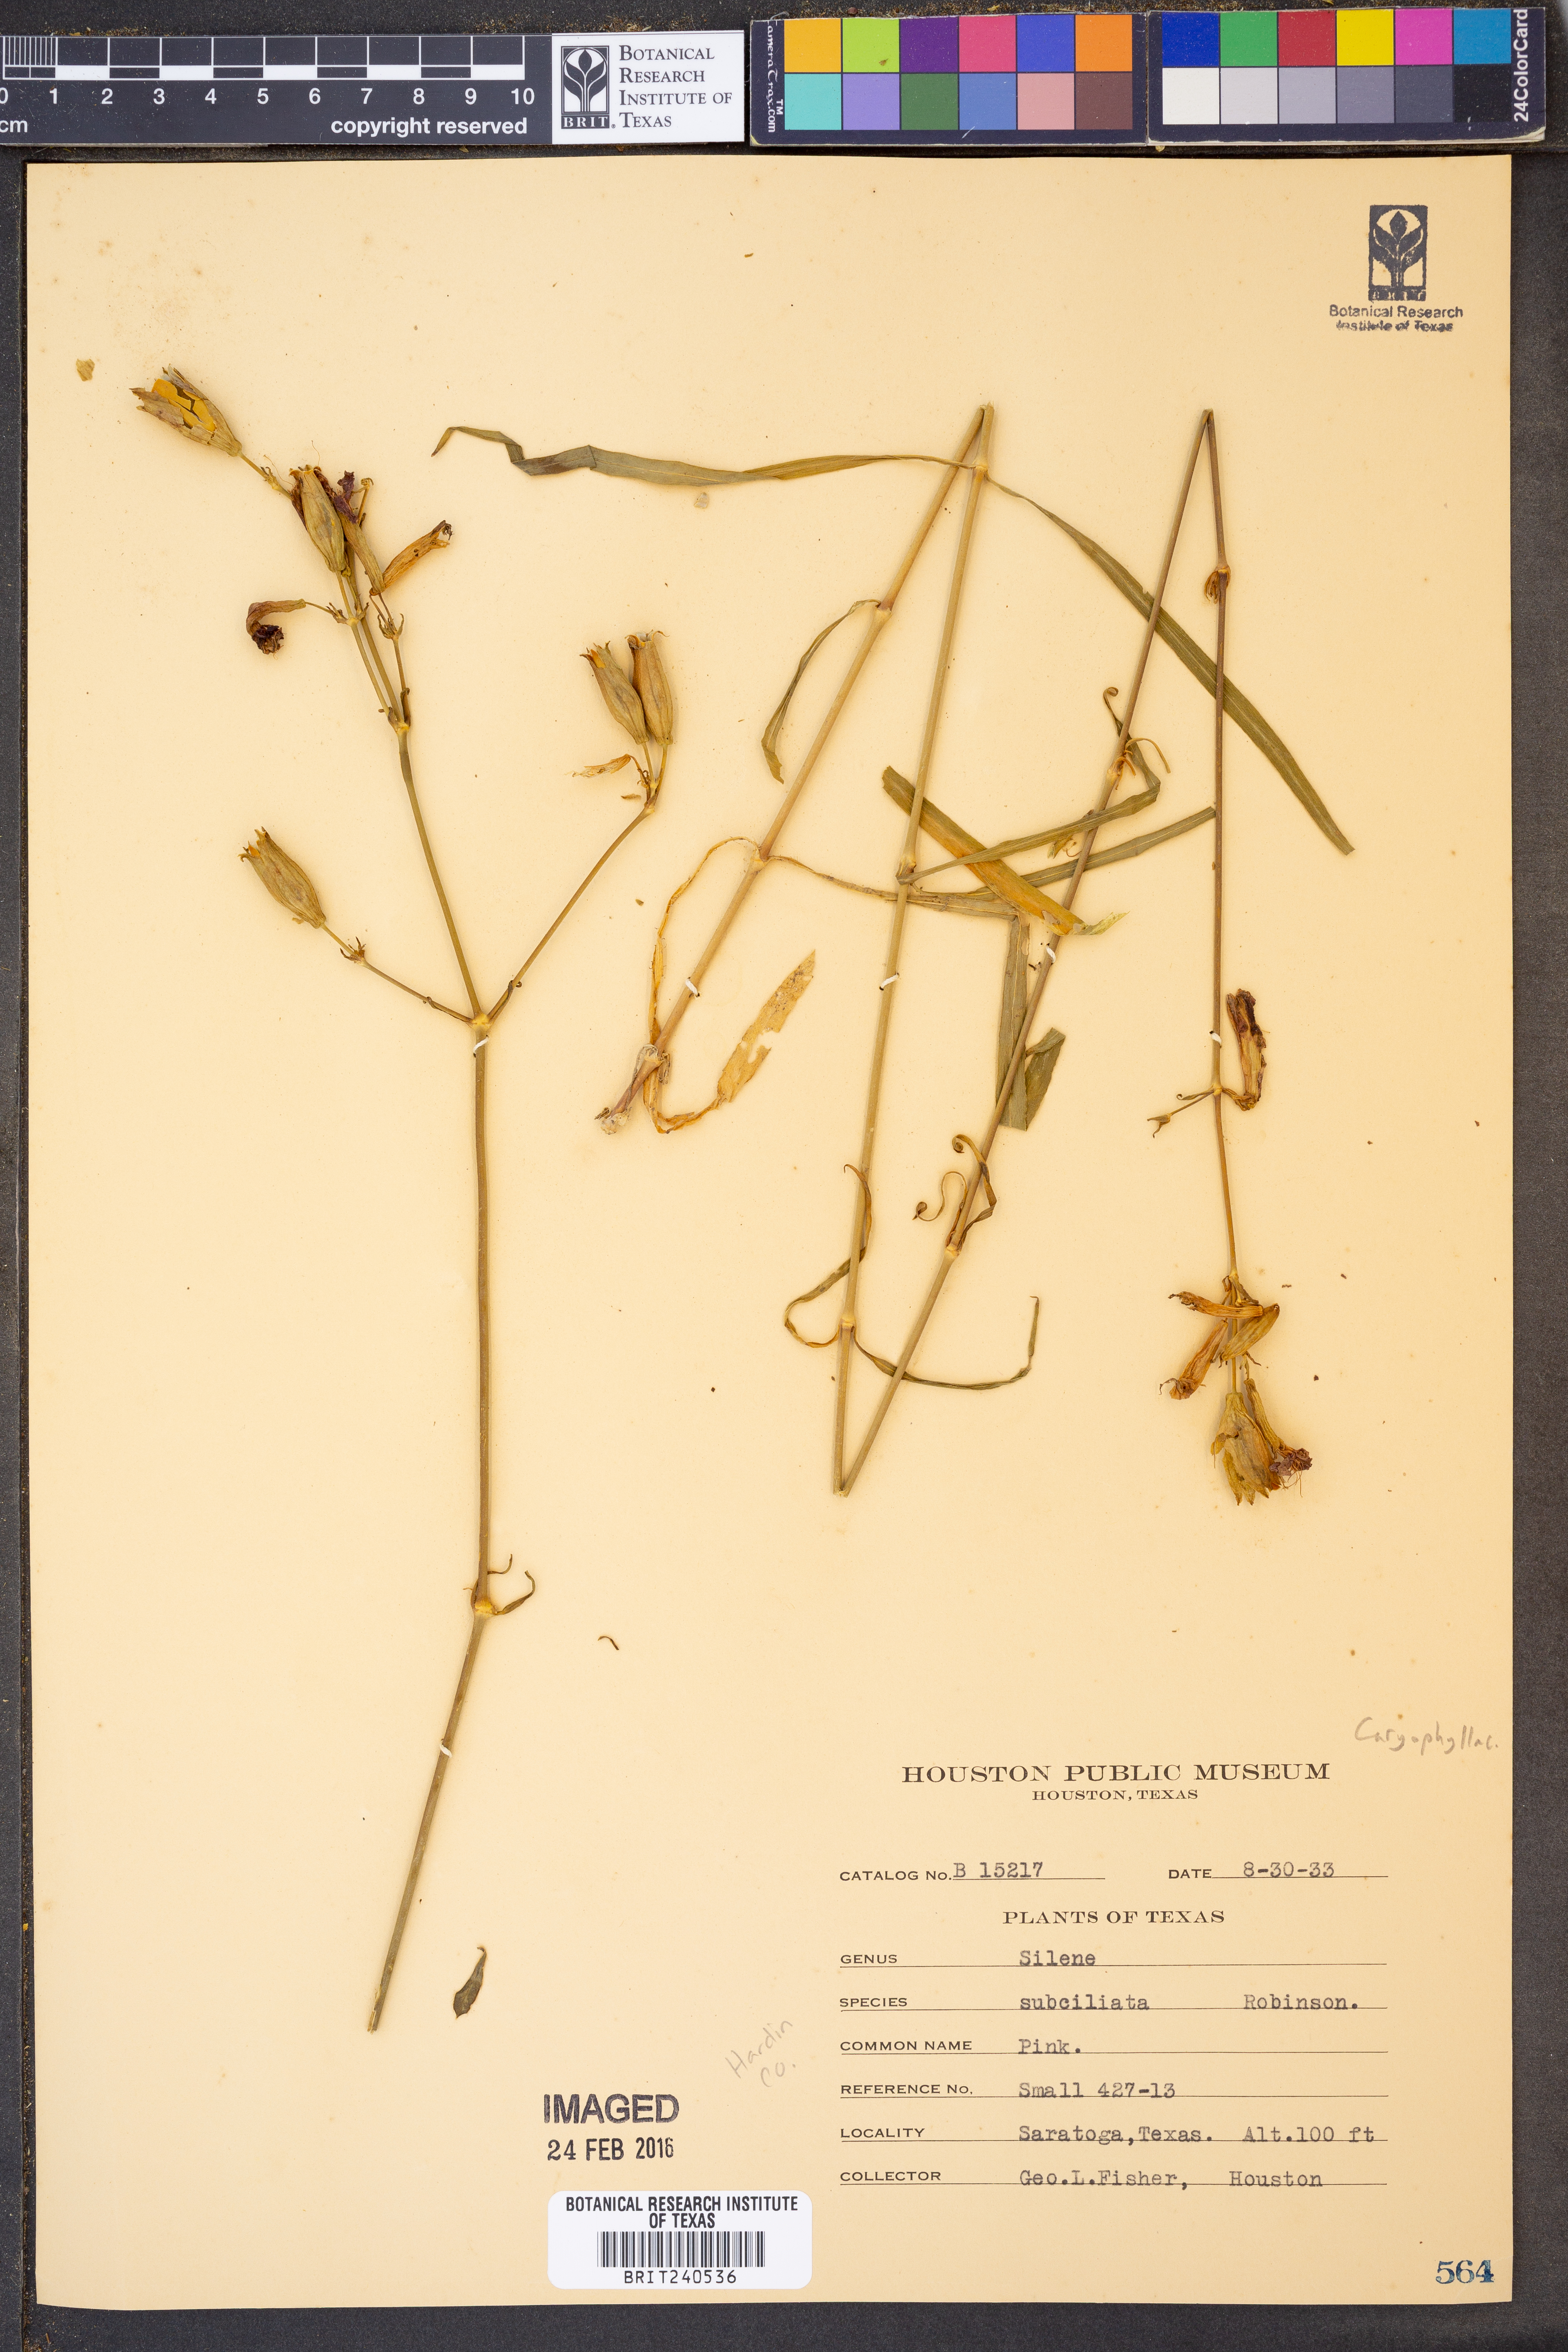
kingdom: Plantae
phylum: Tracheophyta
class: Magnoliopsida
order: Caryophyllales
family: Caryophyllaceae
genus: Silene
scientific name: Silene subciliata
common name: Prairie fire-pink
